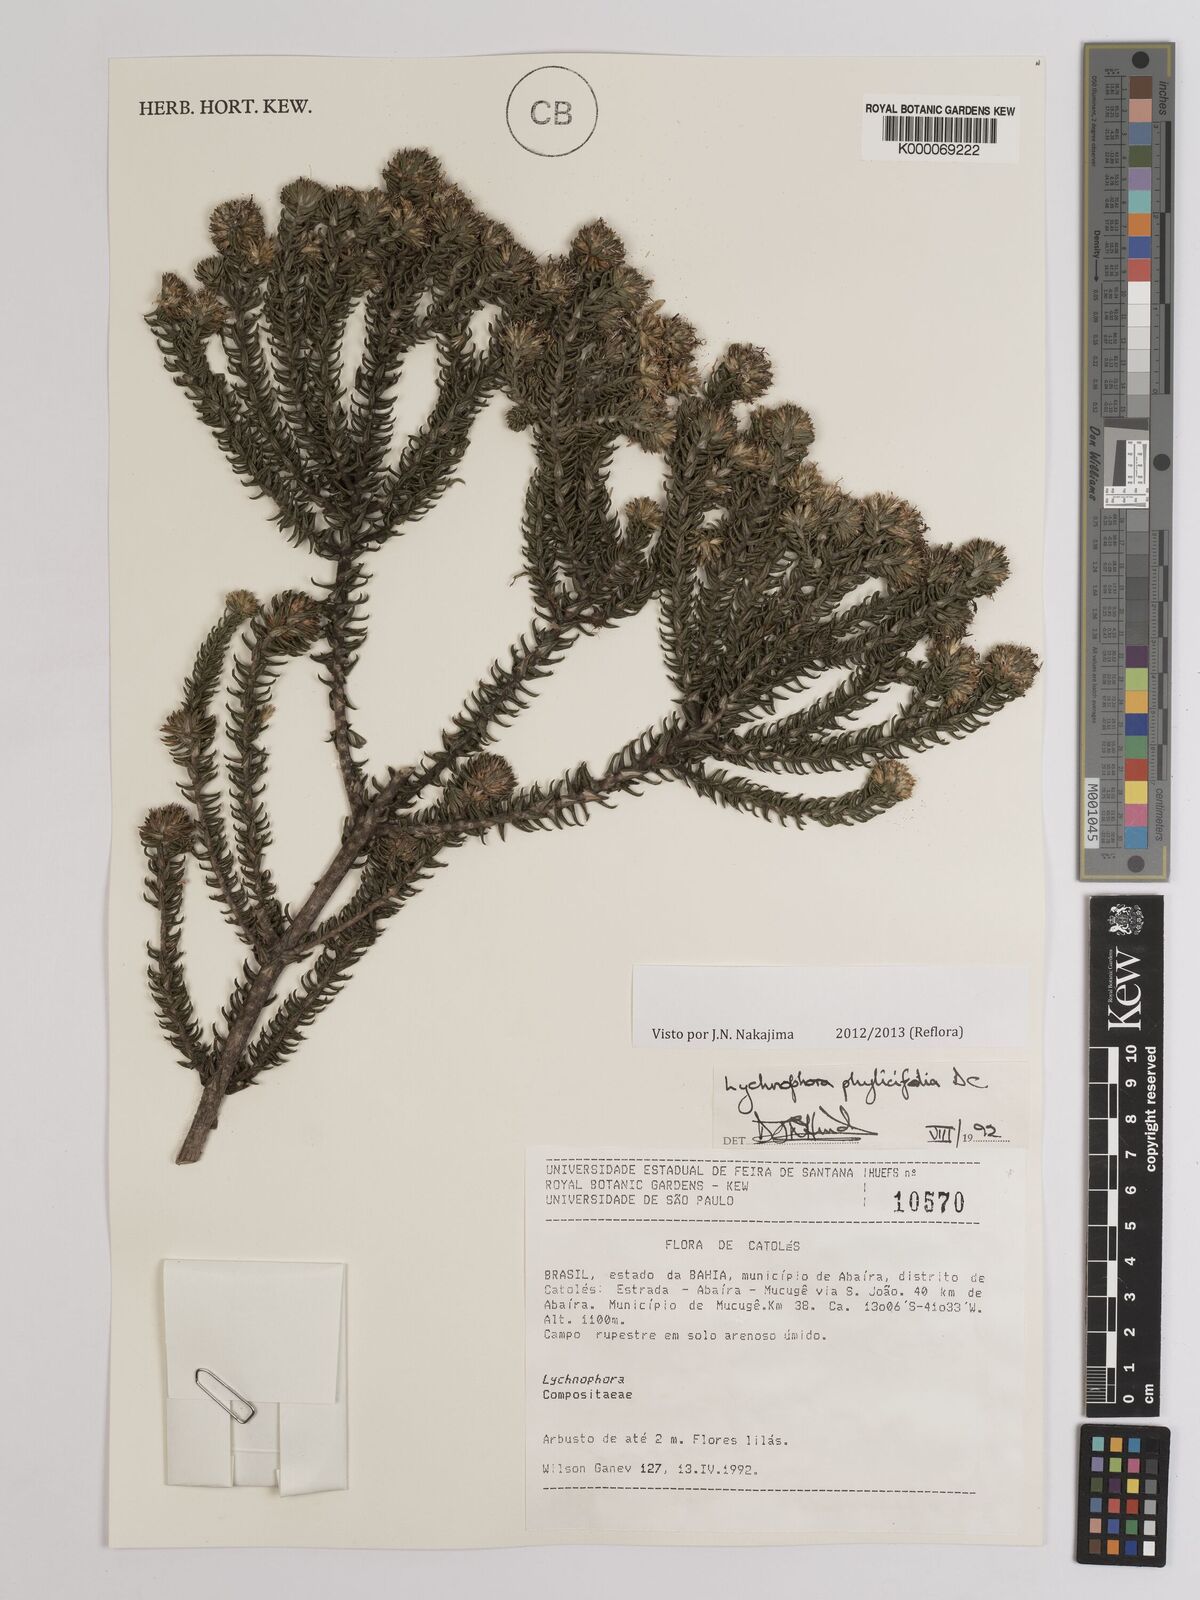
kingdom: Plantae
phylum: Tracheophyta
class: Magnoliopsida
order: Asterales
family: Asteraceae
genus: Lychnophora
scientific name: Lychnophora phylicifolia
